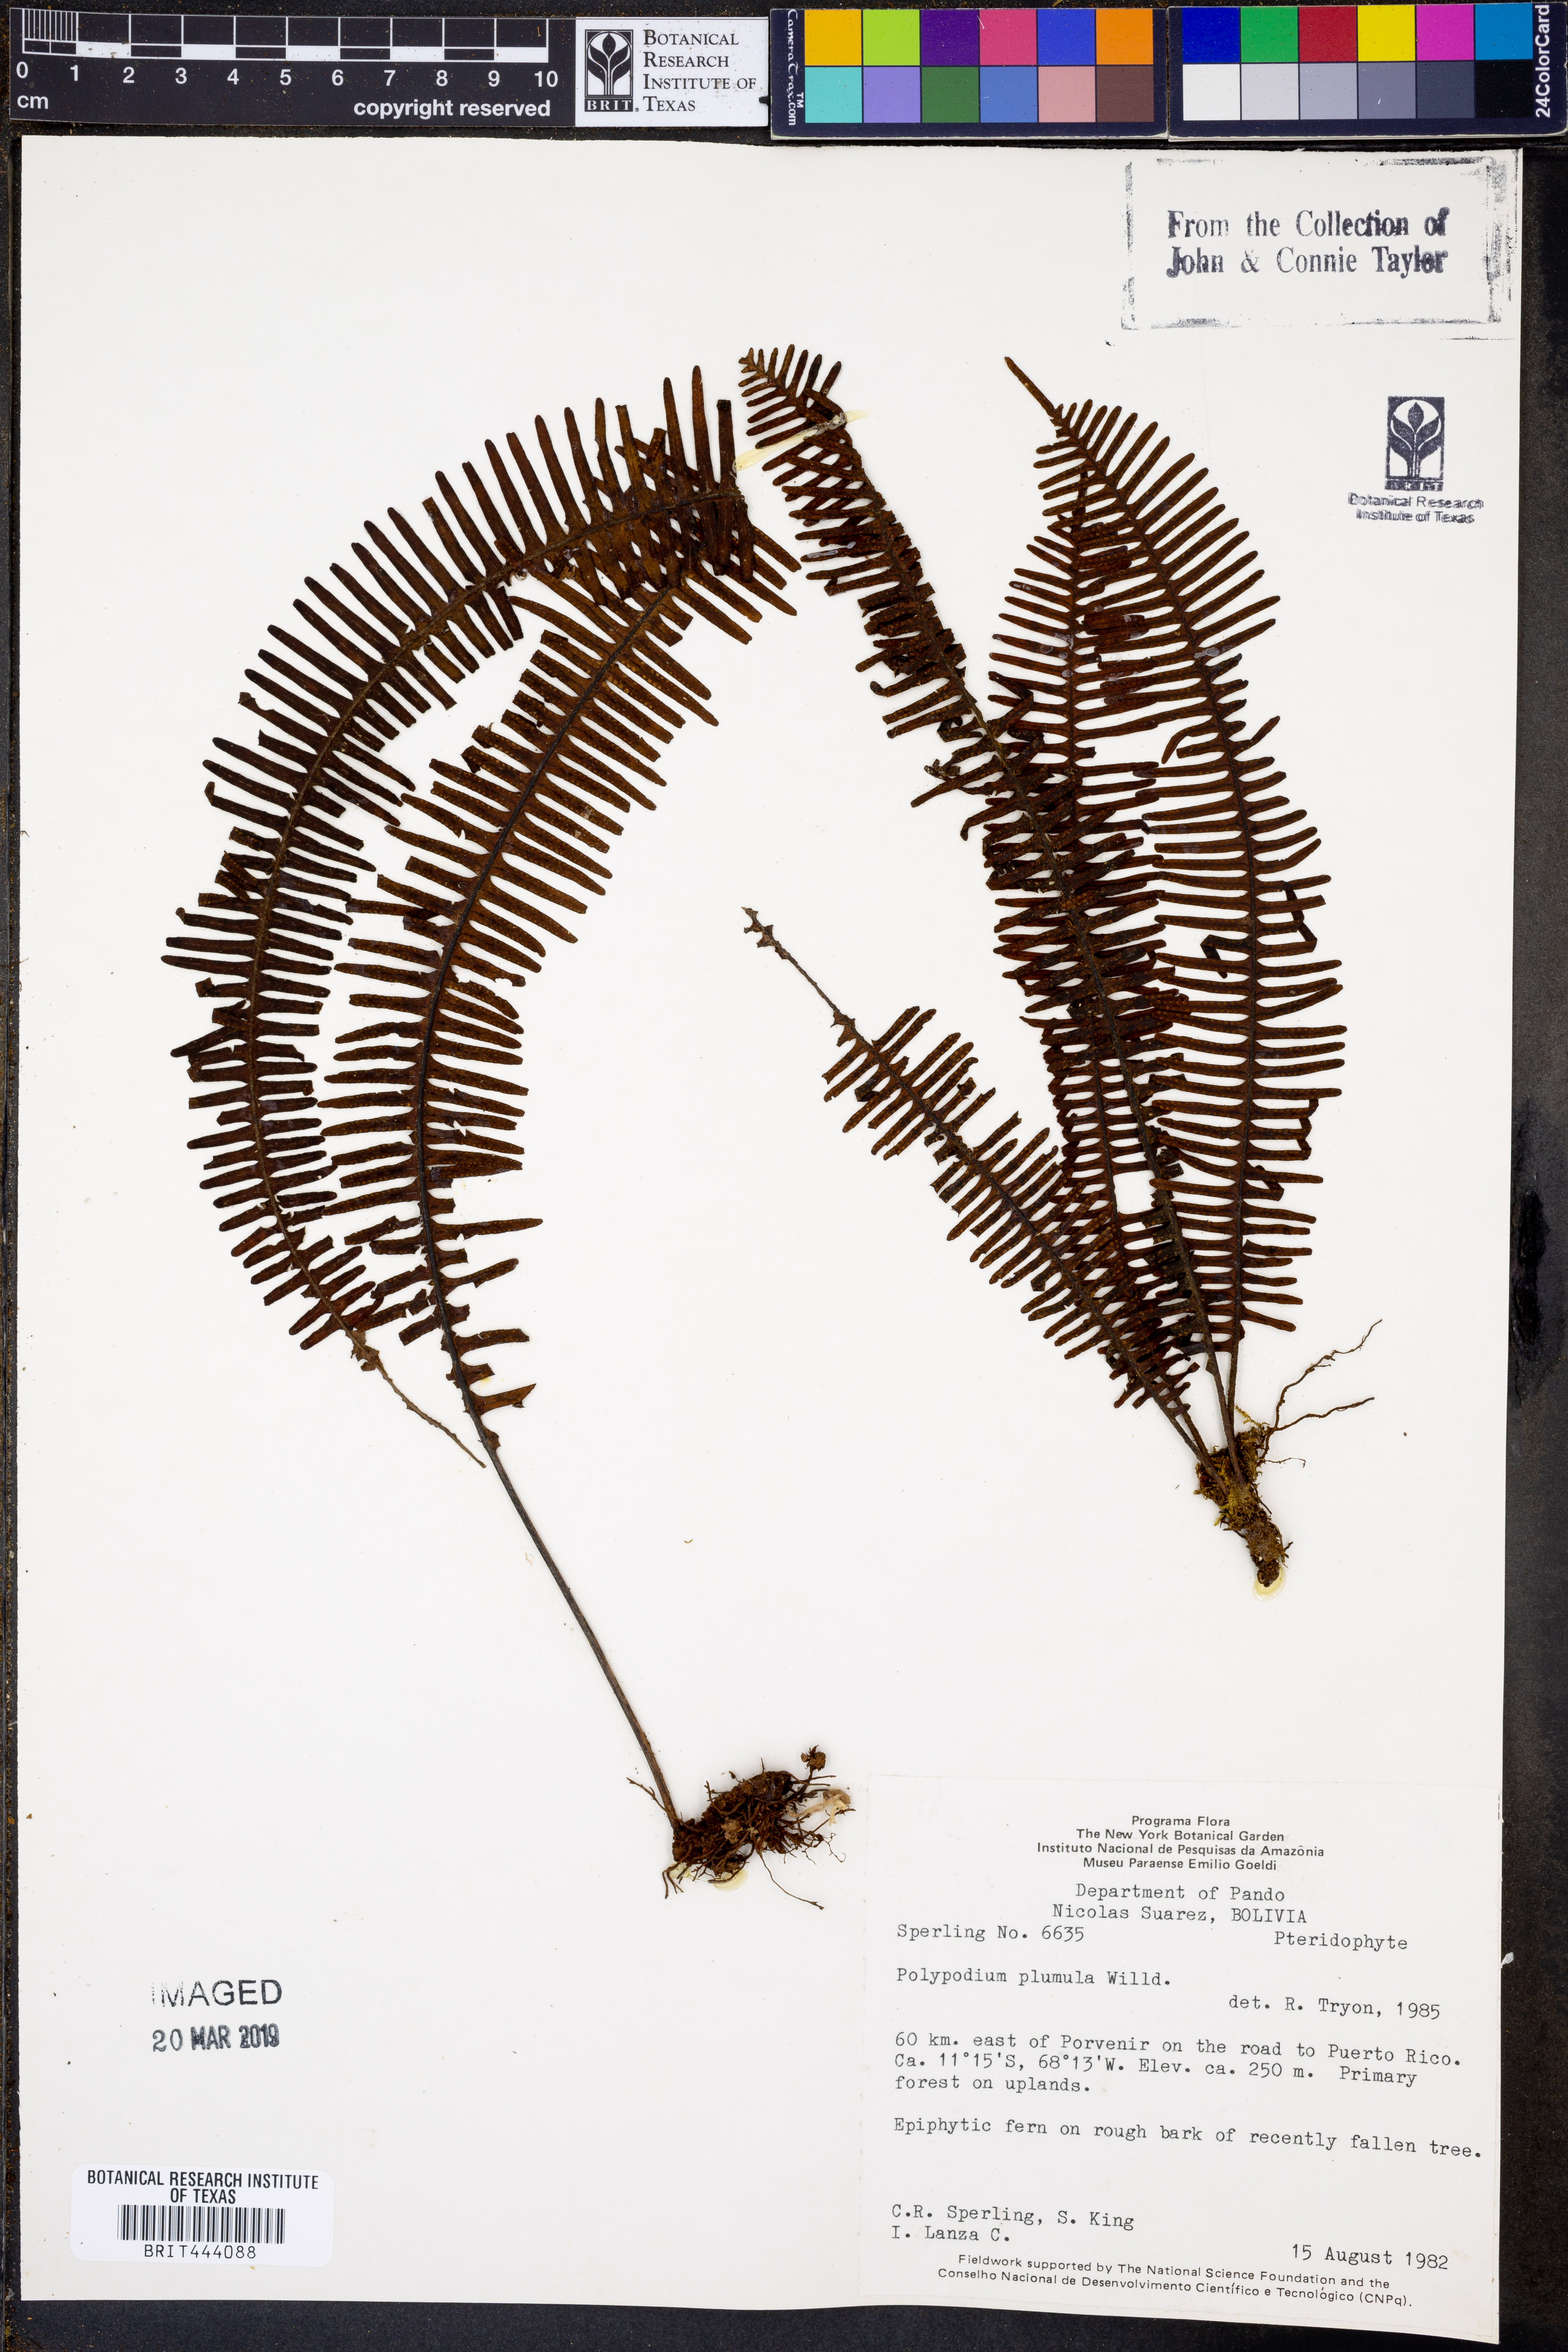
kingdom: Plantae
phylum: Tracheophyta
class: Polypodiopsida
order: Polypodiales
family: Polypodiaceae
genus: Pecluma
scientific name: Pecluma plumula
